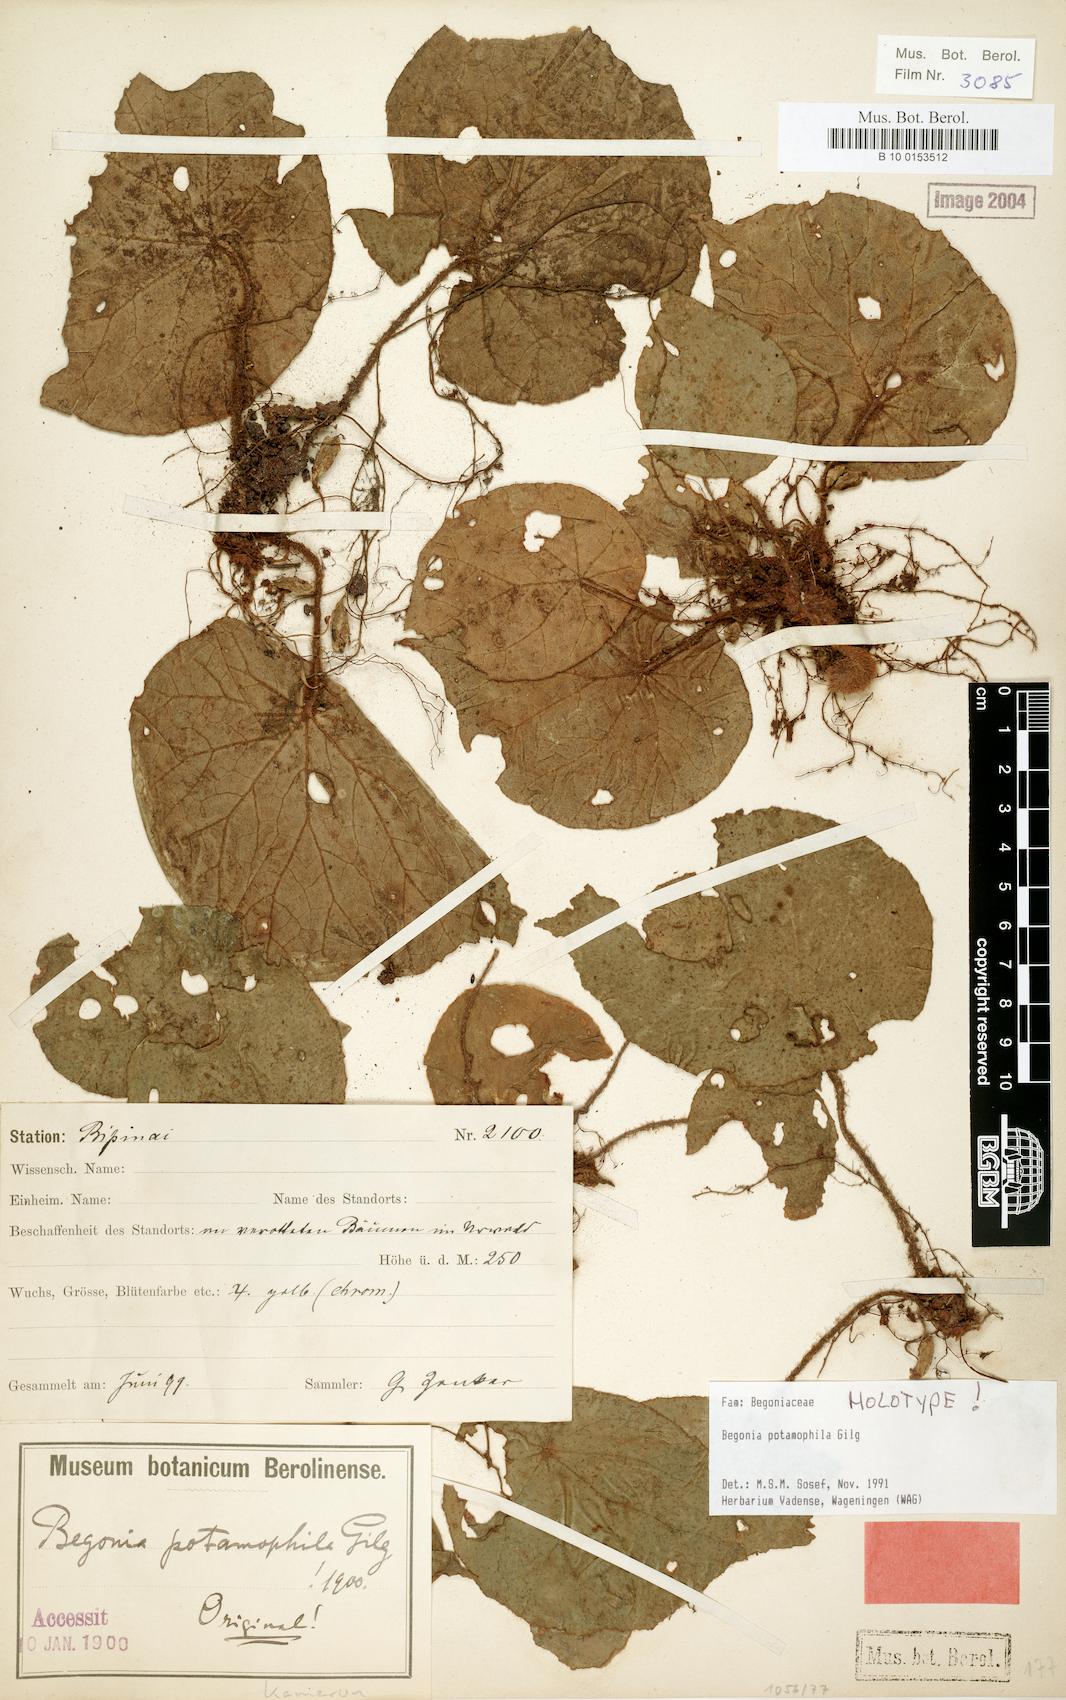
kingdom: Plantae
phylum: Tracheophyta
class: Magnoliopsida
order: Cucurbitales
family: Begoniaceae
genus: Begonia
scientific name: Begonia potamophila
